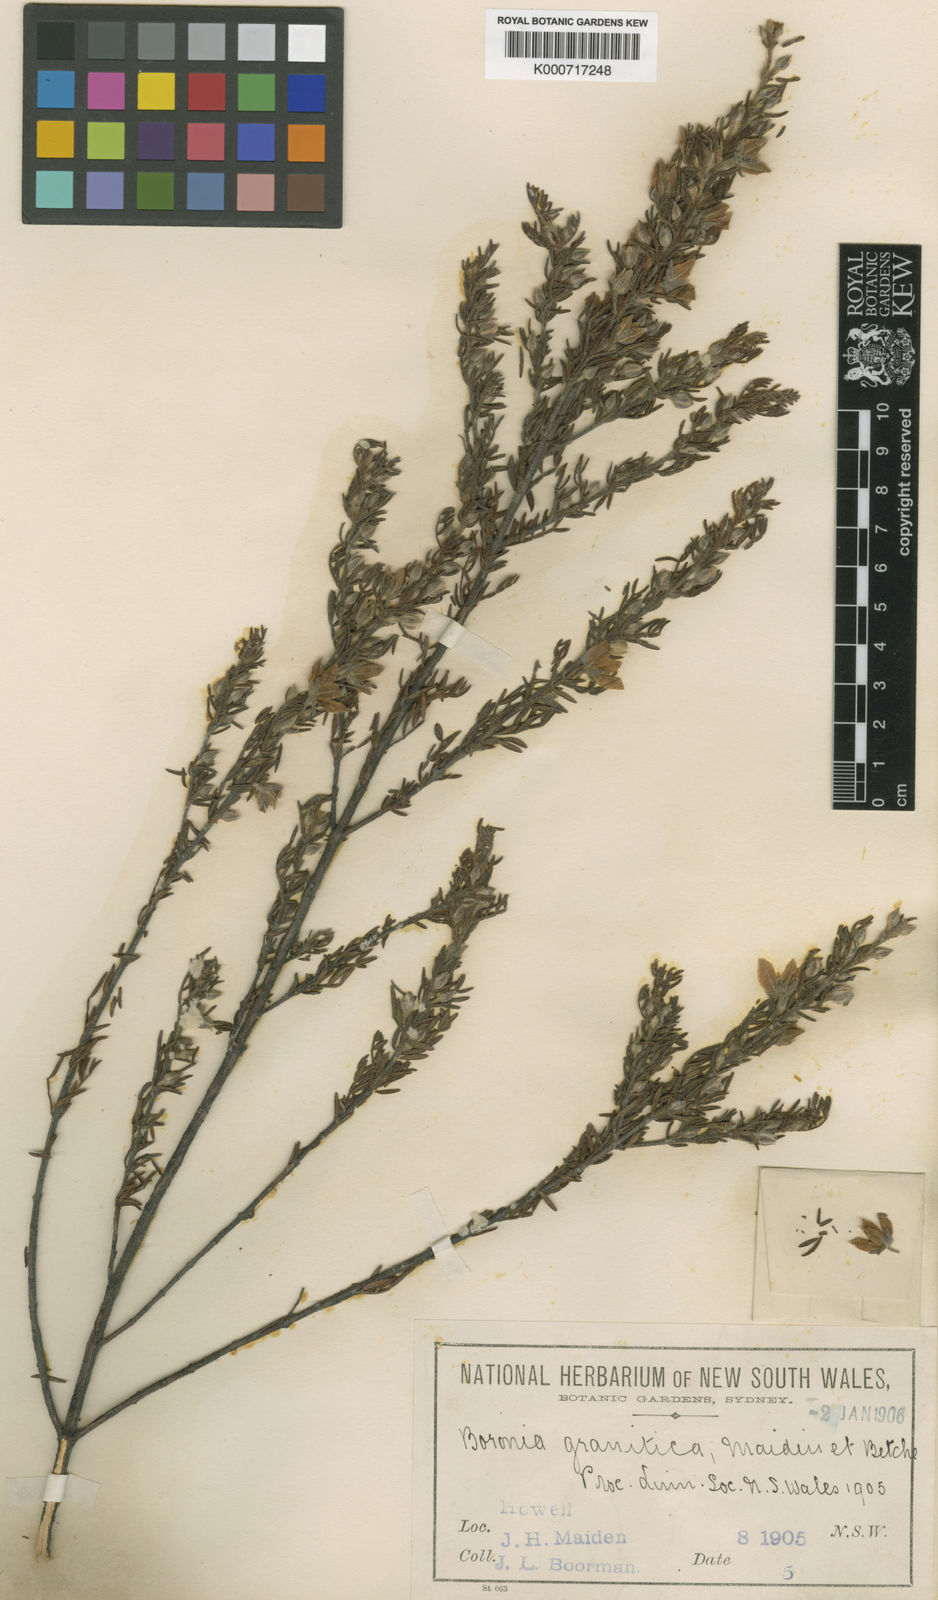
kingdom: Plantae
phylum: Tracheophyta
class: Magnoliopsida
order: Sapindales
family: Rutaceae
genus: Boronia
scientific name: Boronia granitica
